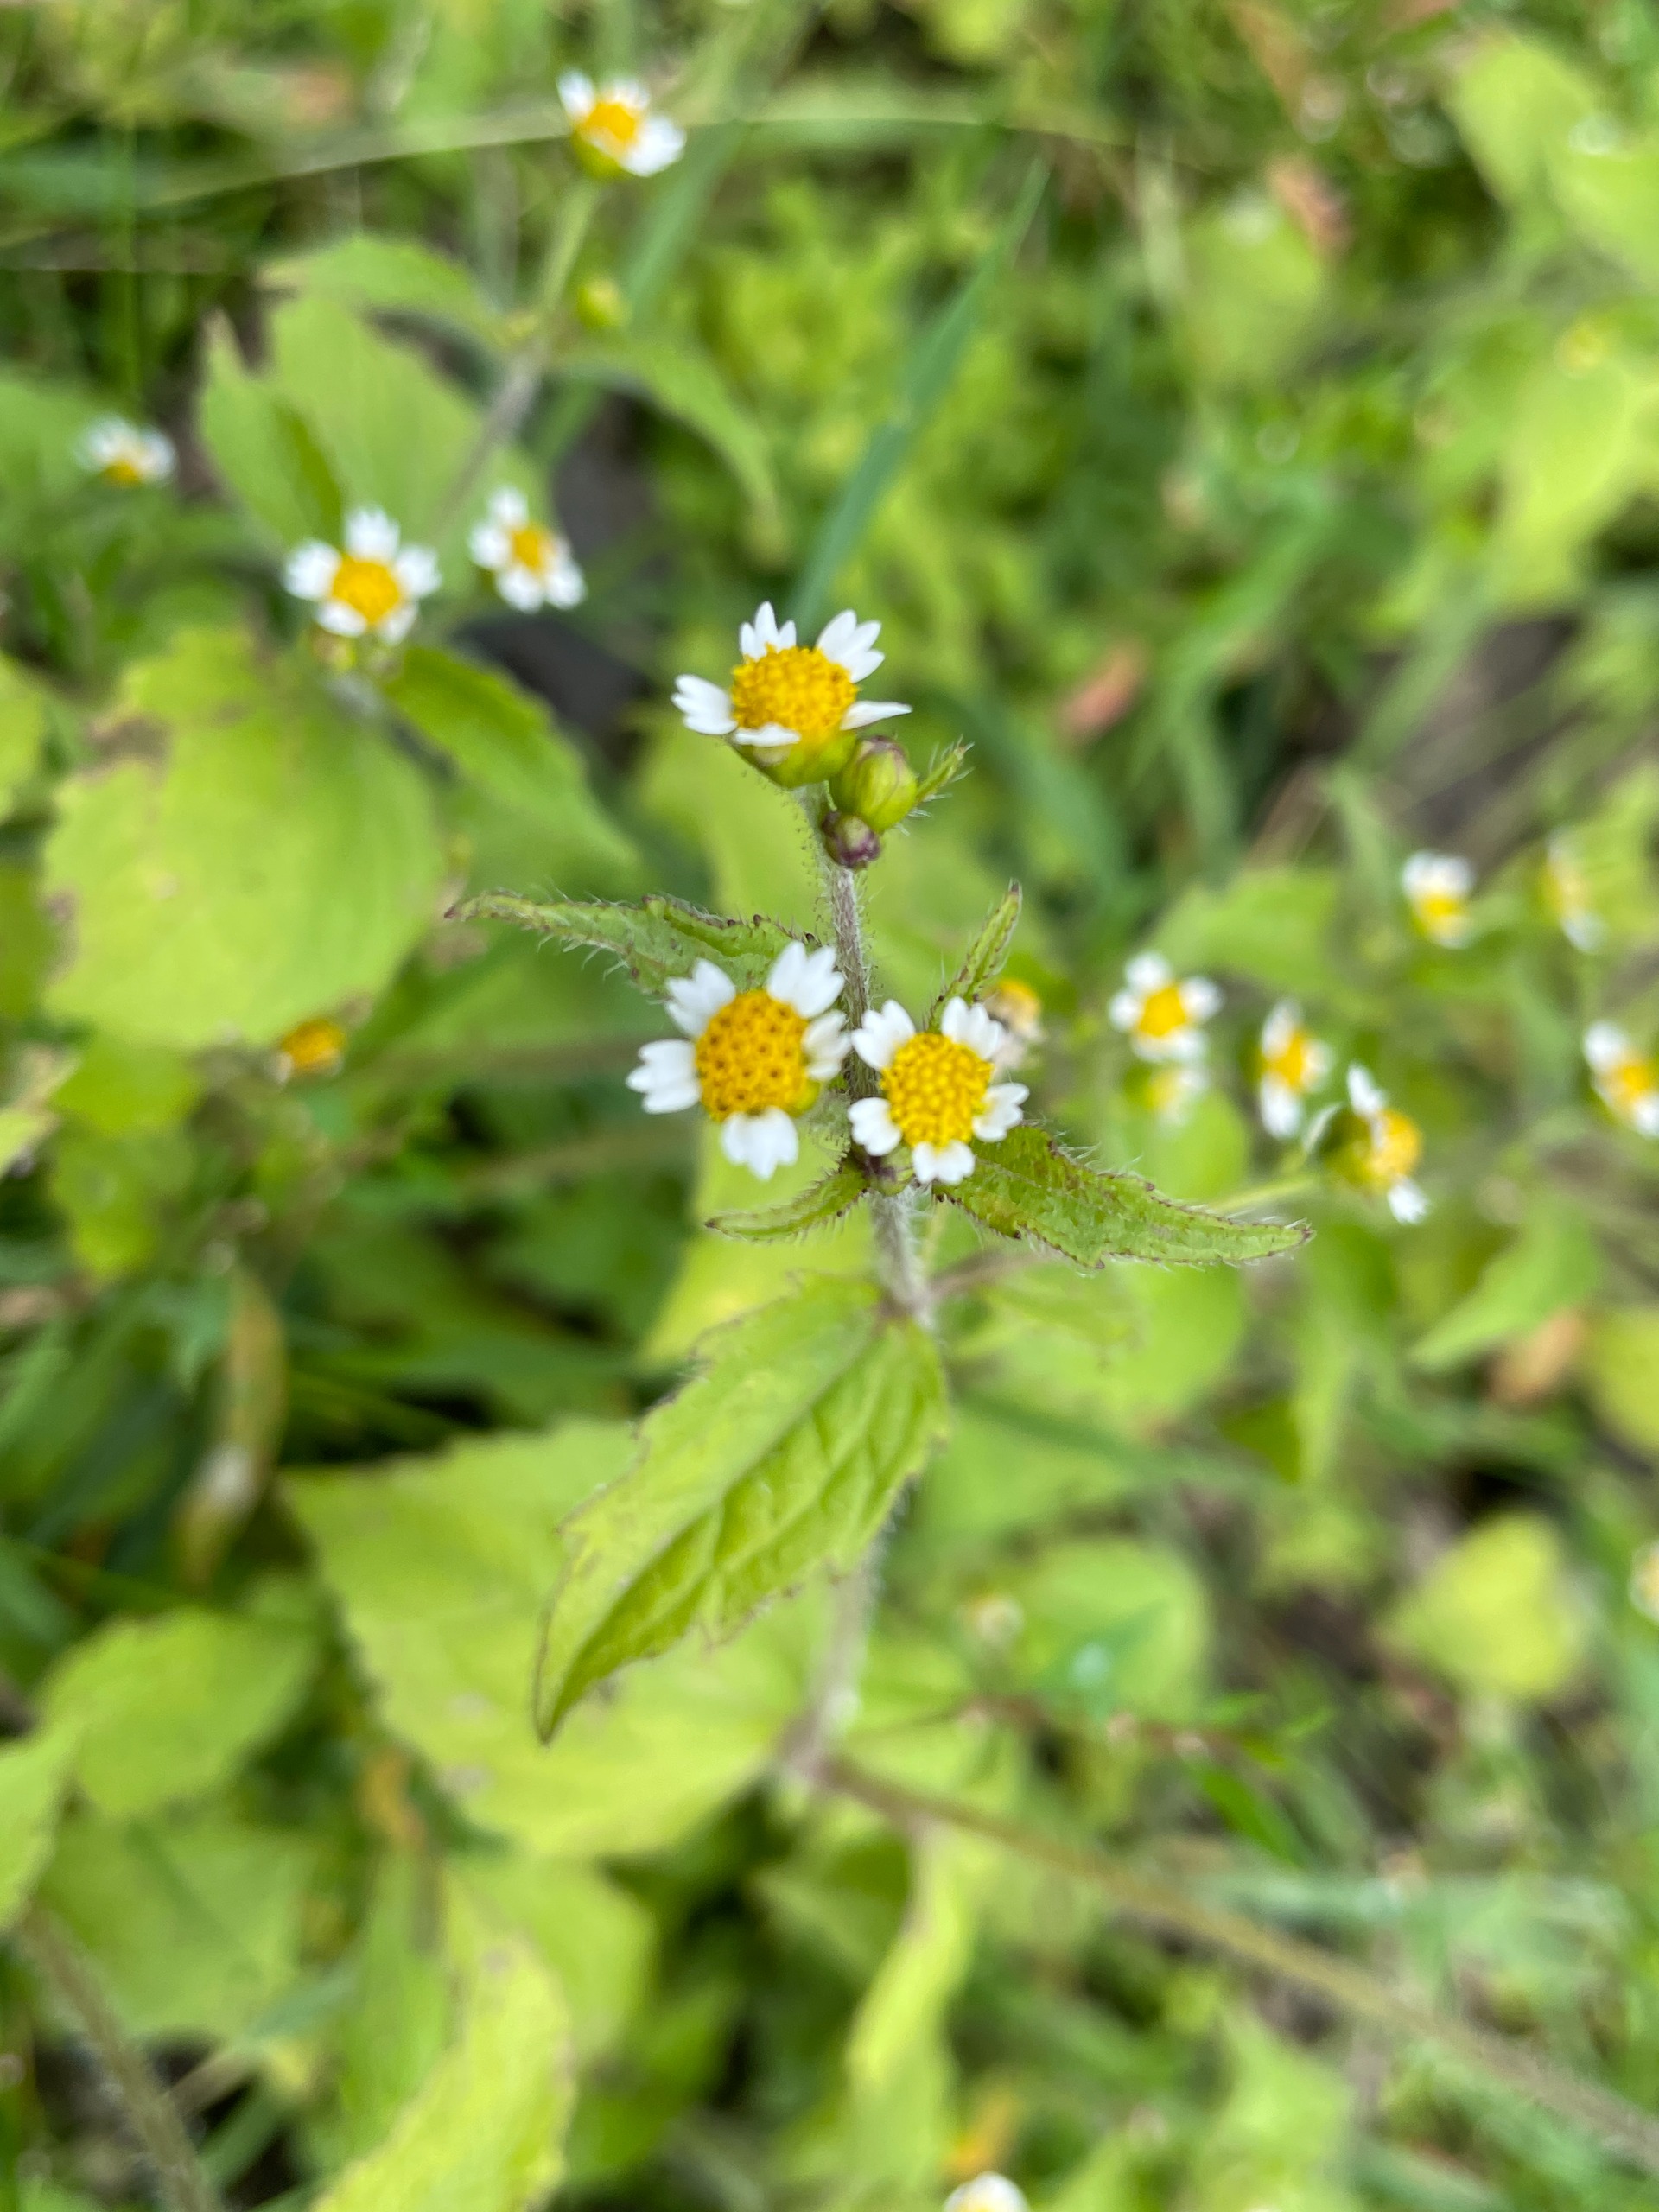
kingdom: Plantae
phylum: Tracheophyta
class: Magnoliopsida
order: Asterales
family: Asteraceae
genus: Galinsoga
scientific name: Galinsoga quadriradiata
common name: Kirtel-kortstråle
